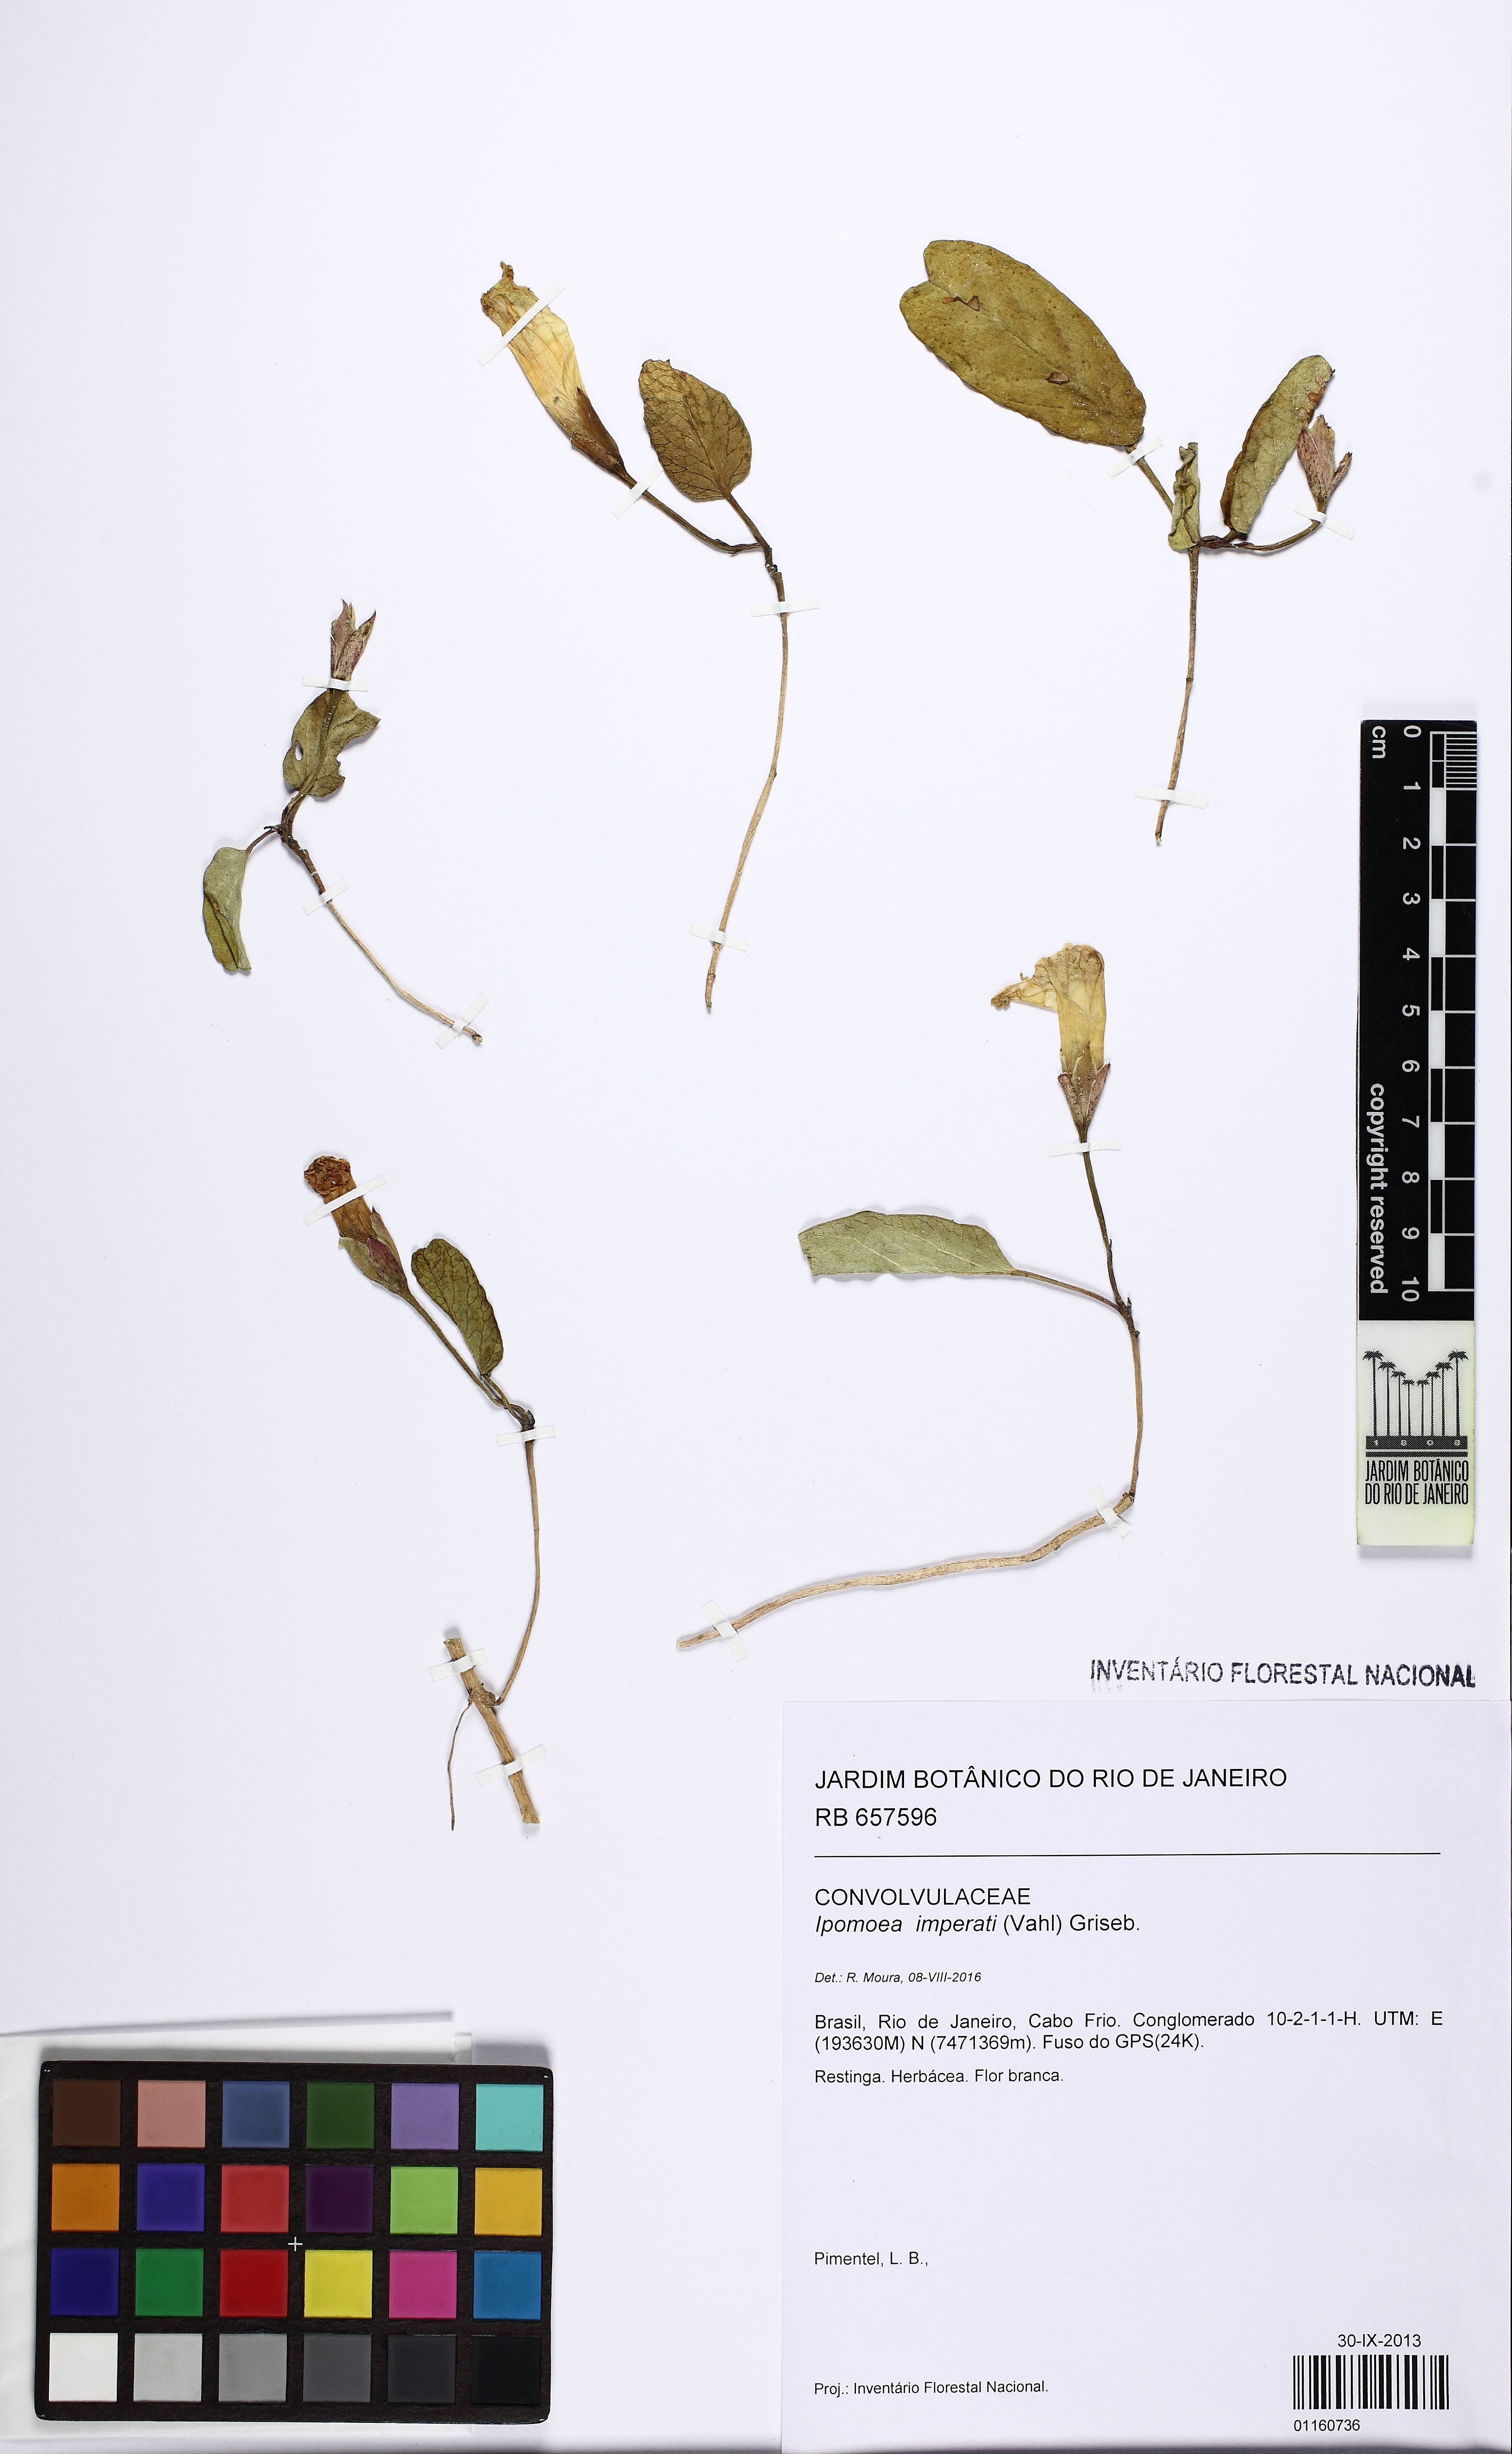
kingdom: Plantae
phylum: Tracheophyta
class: Magnoliopsida
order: Solanales
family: Convolvulaceae
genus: Ipomoea
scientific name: Ipomoea imperati
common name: Fiddle-leaf morning-glory
